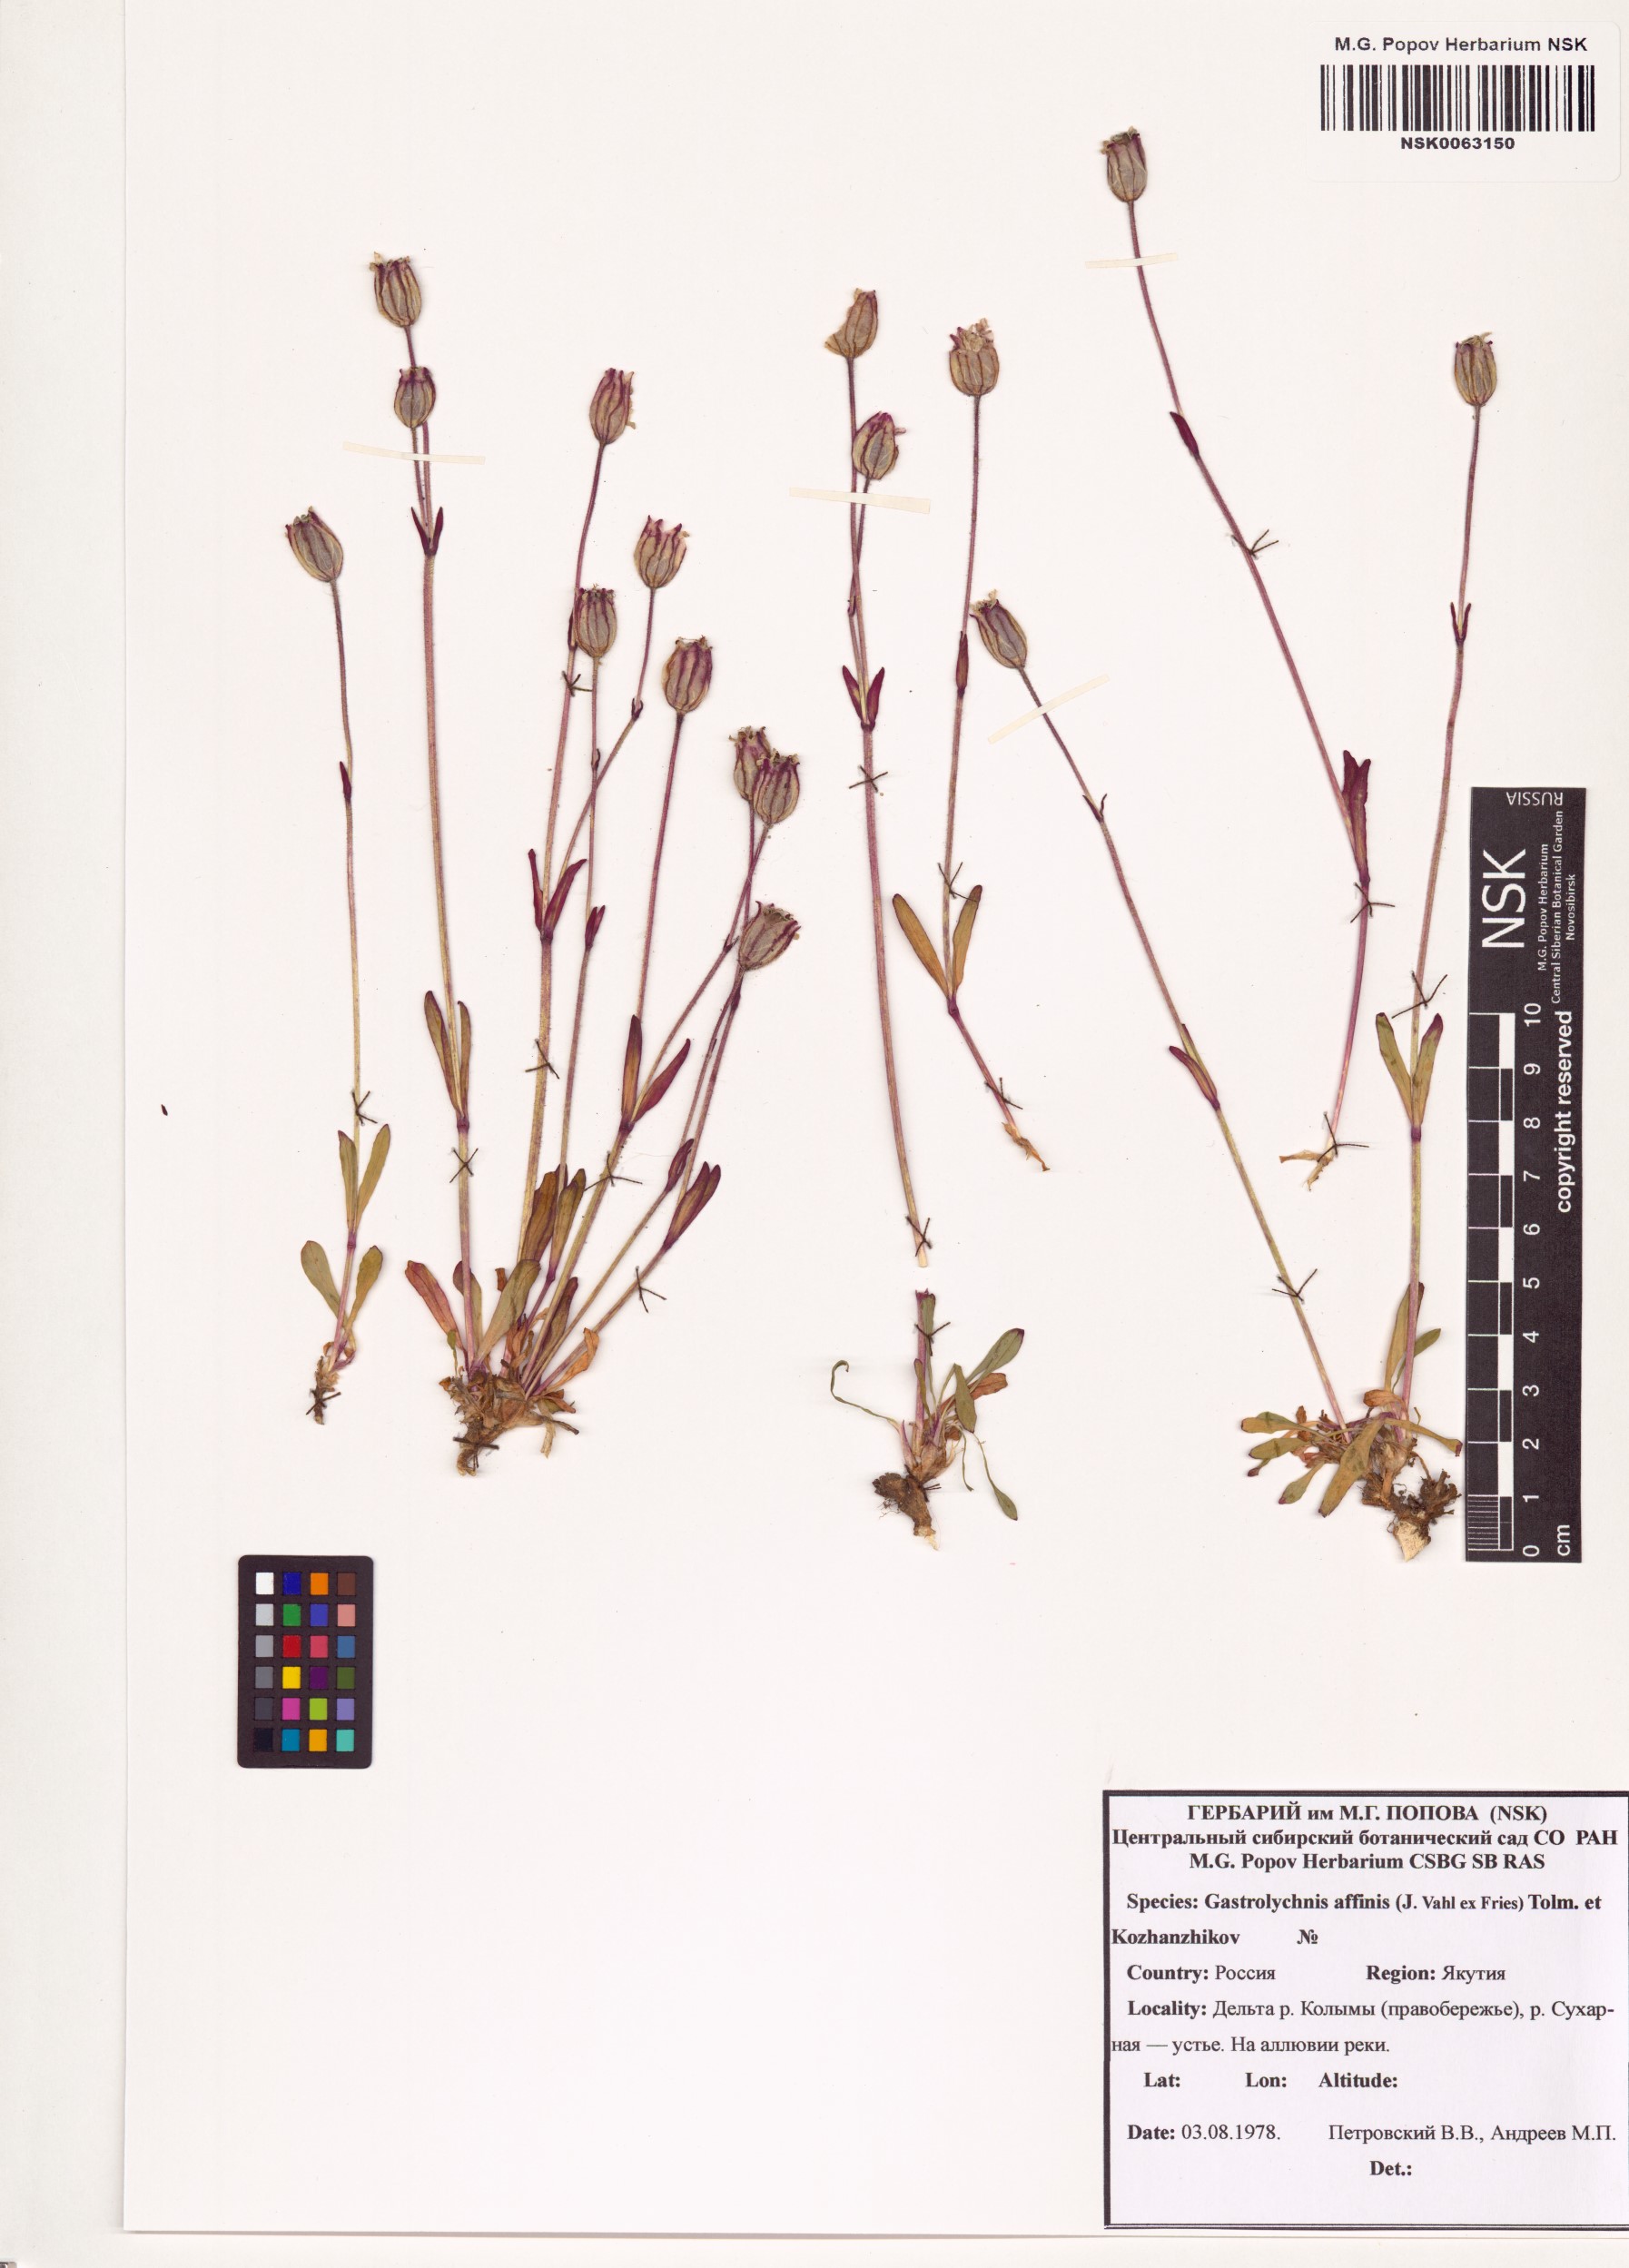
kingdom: Plantae
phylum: Tracheophyta
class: Magnoliopsida
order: Caryophyllales
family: Caryophyllaceae
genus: Silene
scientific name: Silene involucrata
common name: Greater arctic campion
